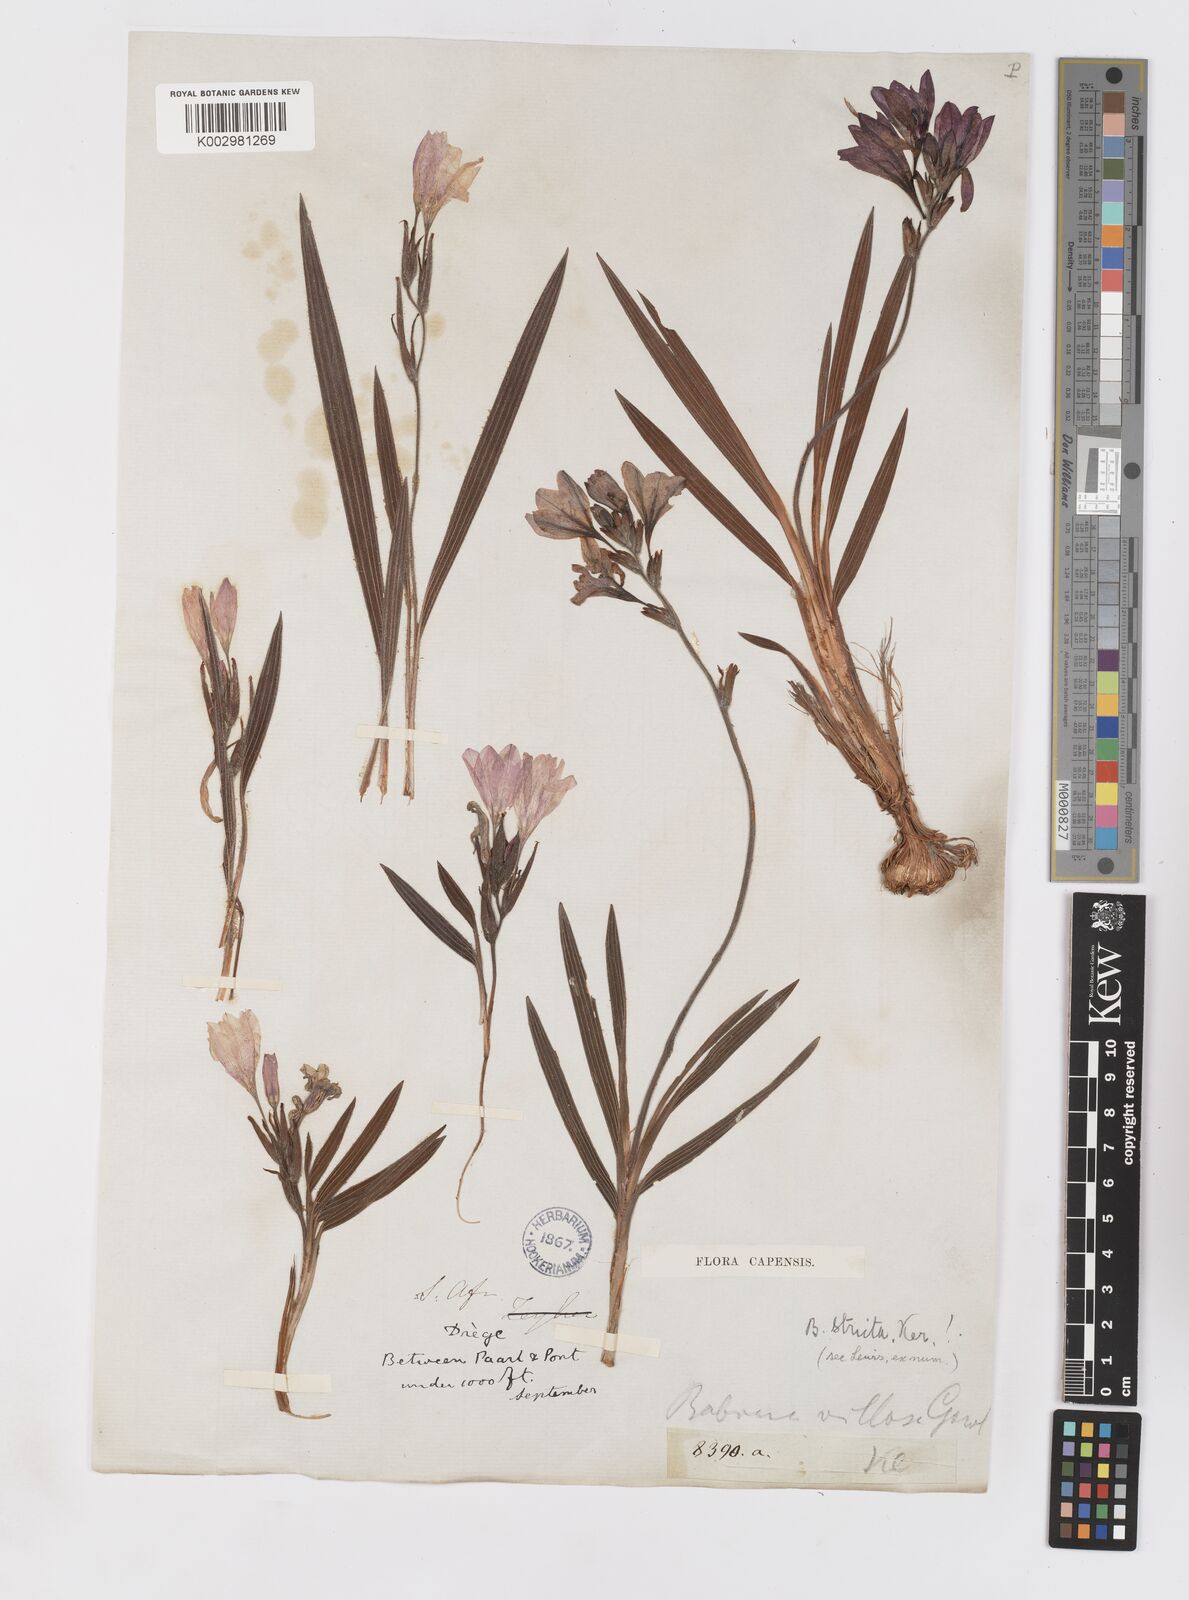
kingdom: Plantae
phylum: Tracheophyta
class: Liliopsida
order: Asparagales
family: Iridaceae
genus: Babiana
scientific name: Babiana regia
